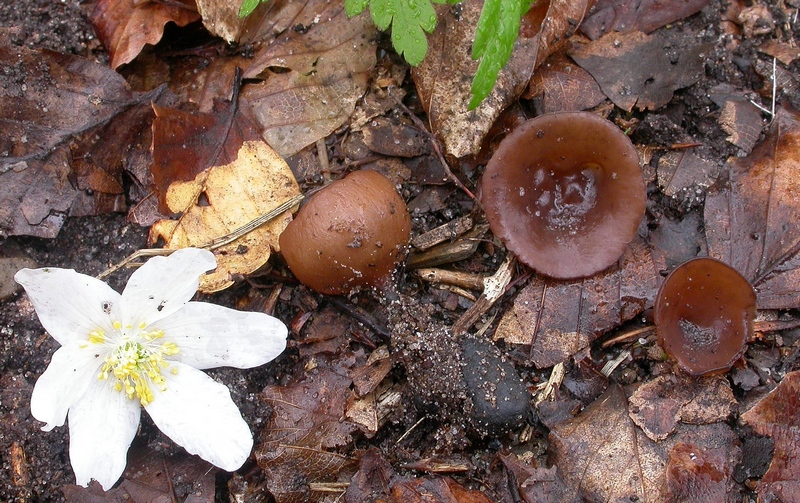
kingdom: Fungi
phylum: Ascomycota
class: Leotiomycetes
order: Helotiales
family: Sclerotiniaceae
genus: Dumontinia
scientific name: Dumontinia tuberosa
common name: anemone-knoldskive
